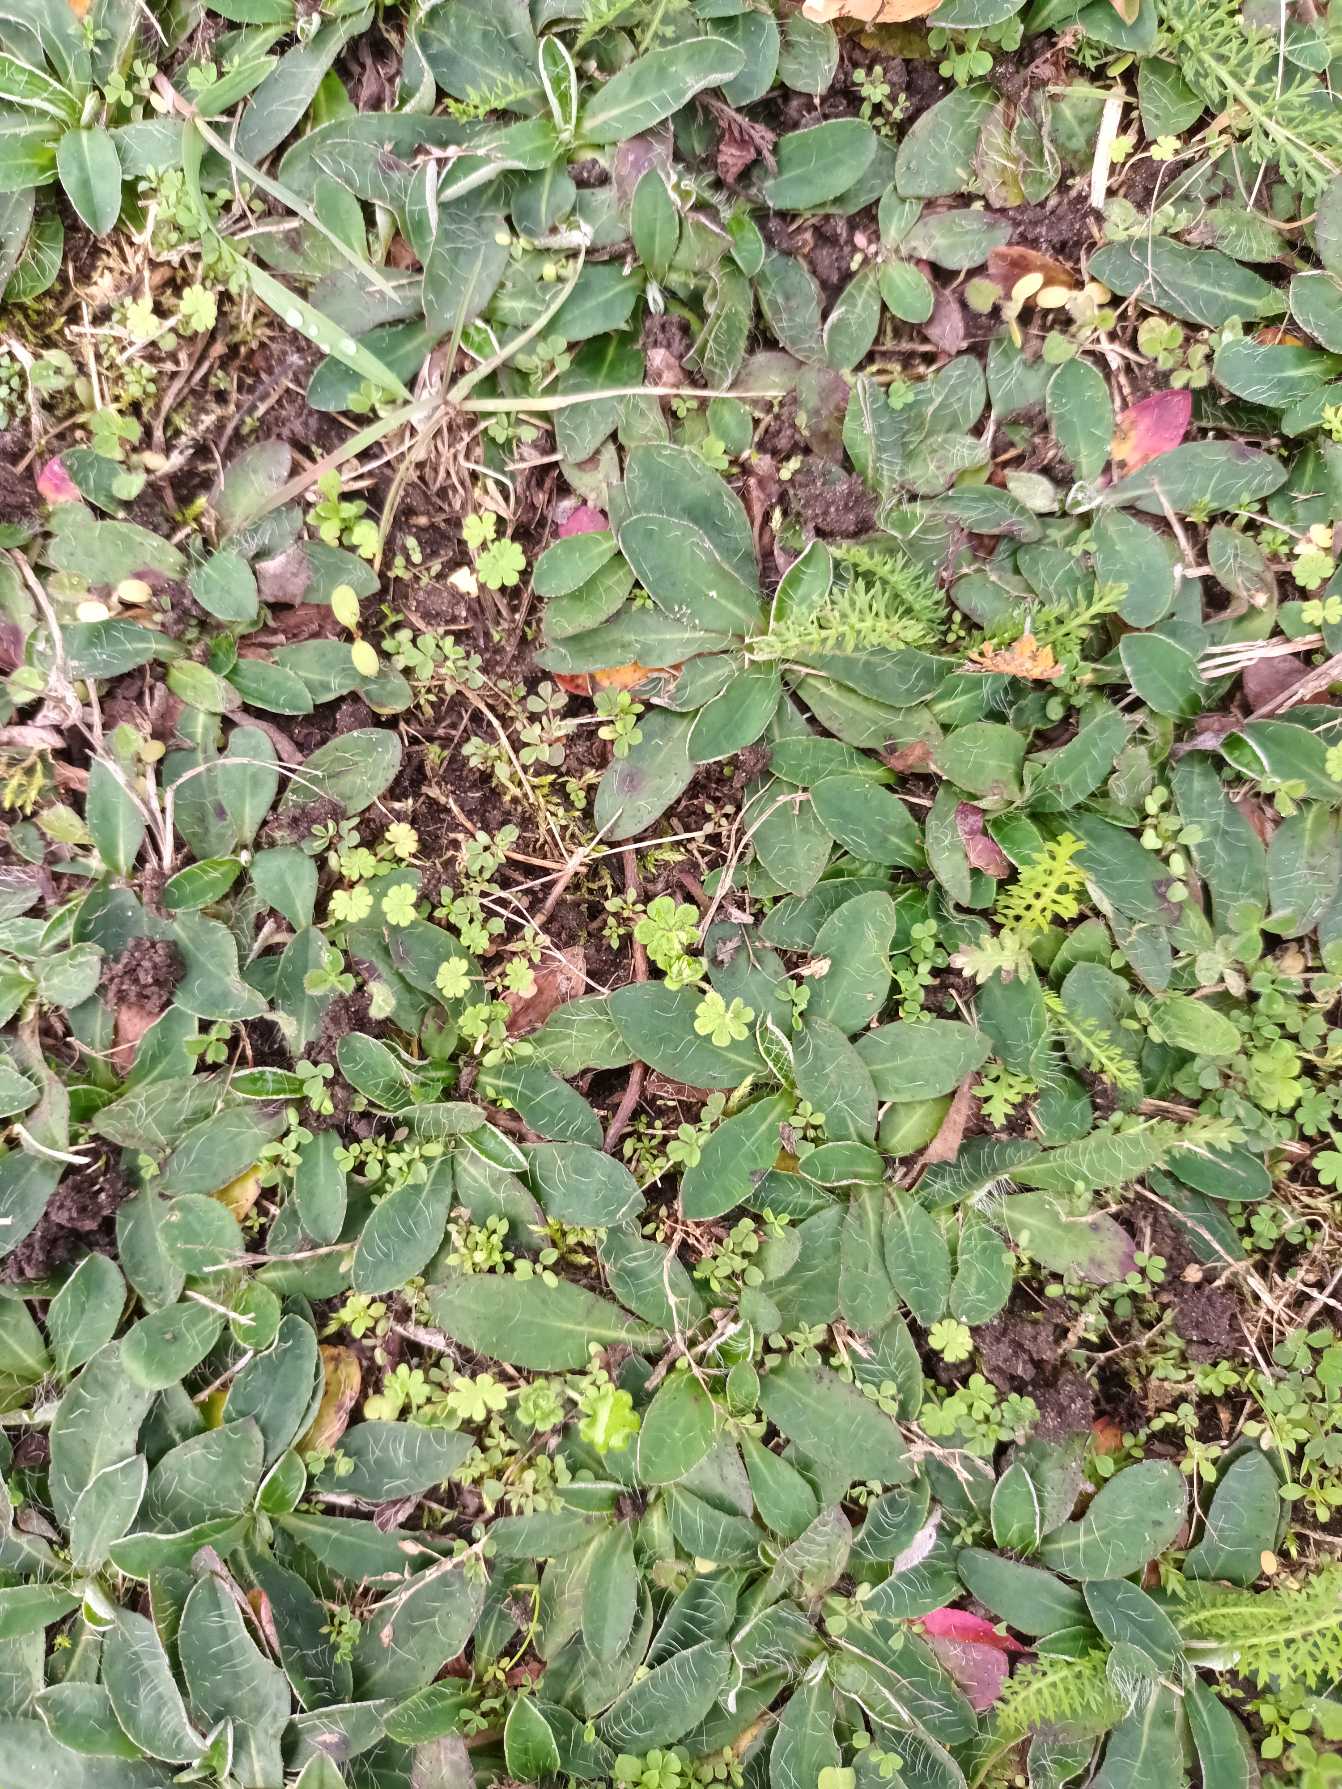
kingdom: Plantae
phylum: Tracheophyta
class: Magnoliopsida
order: Asterales
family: Asteraceae
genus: Pilosella
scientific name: Pilosella officinarum
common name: Håret høgeurt
